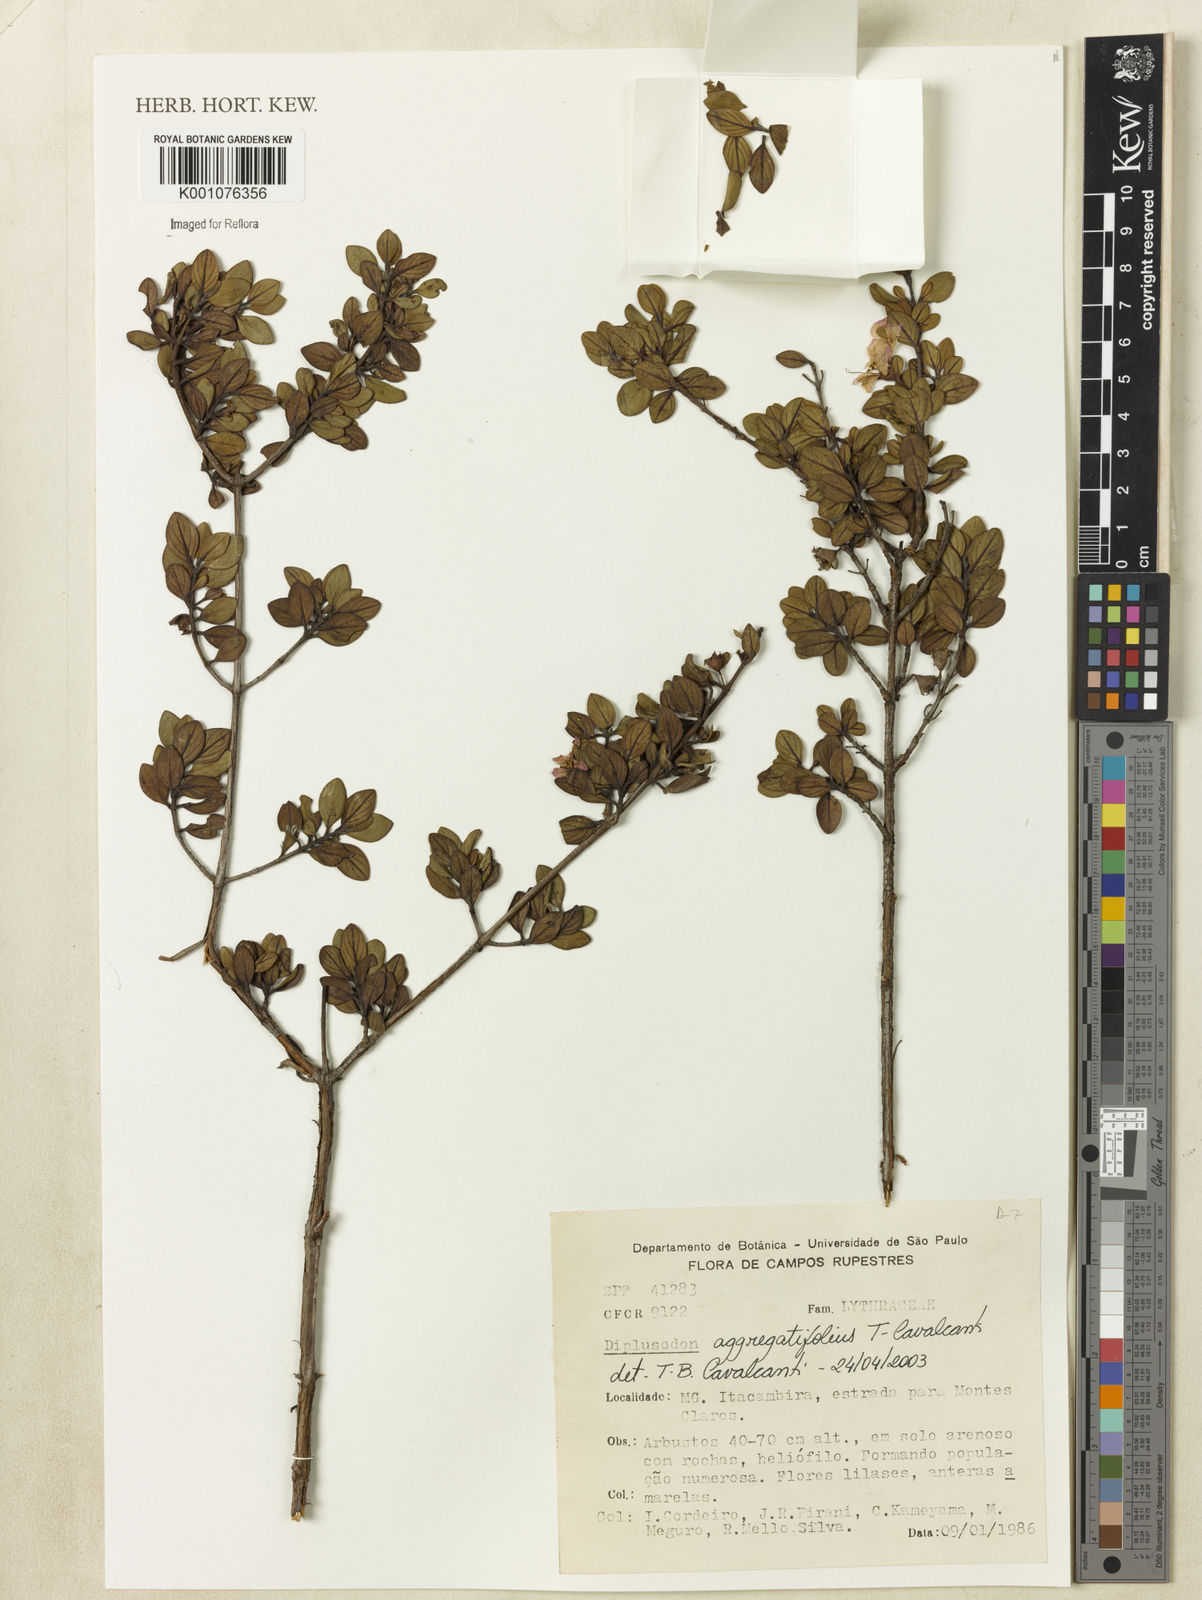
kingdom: Plantae
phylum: Tracheophyta
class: Magnoliopsida
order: Myrtales
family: Lythraceae
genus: Diplusodon
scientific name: Diplusodon aggregatifolius
